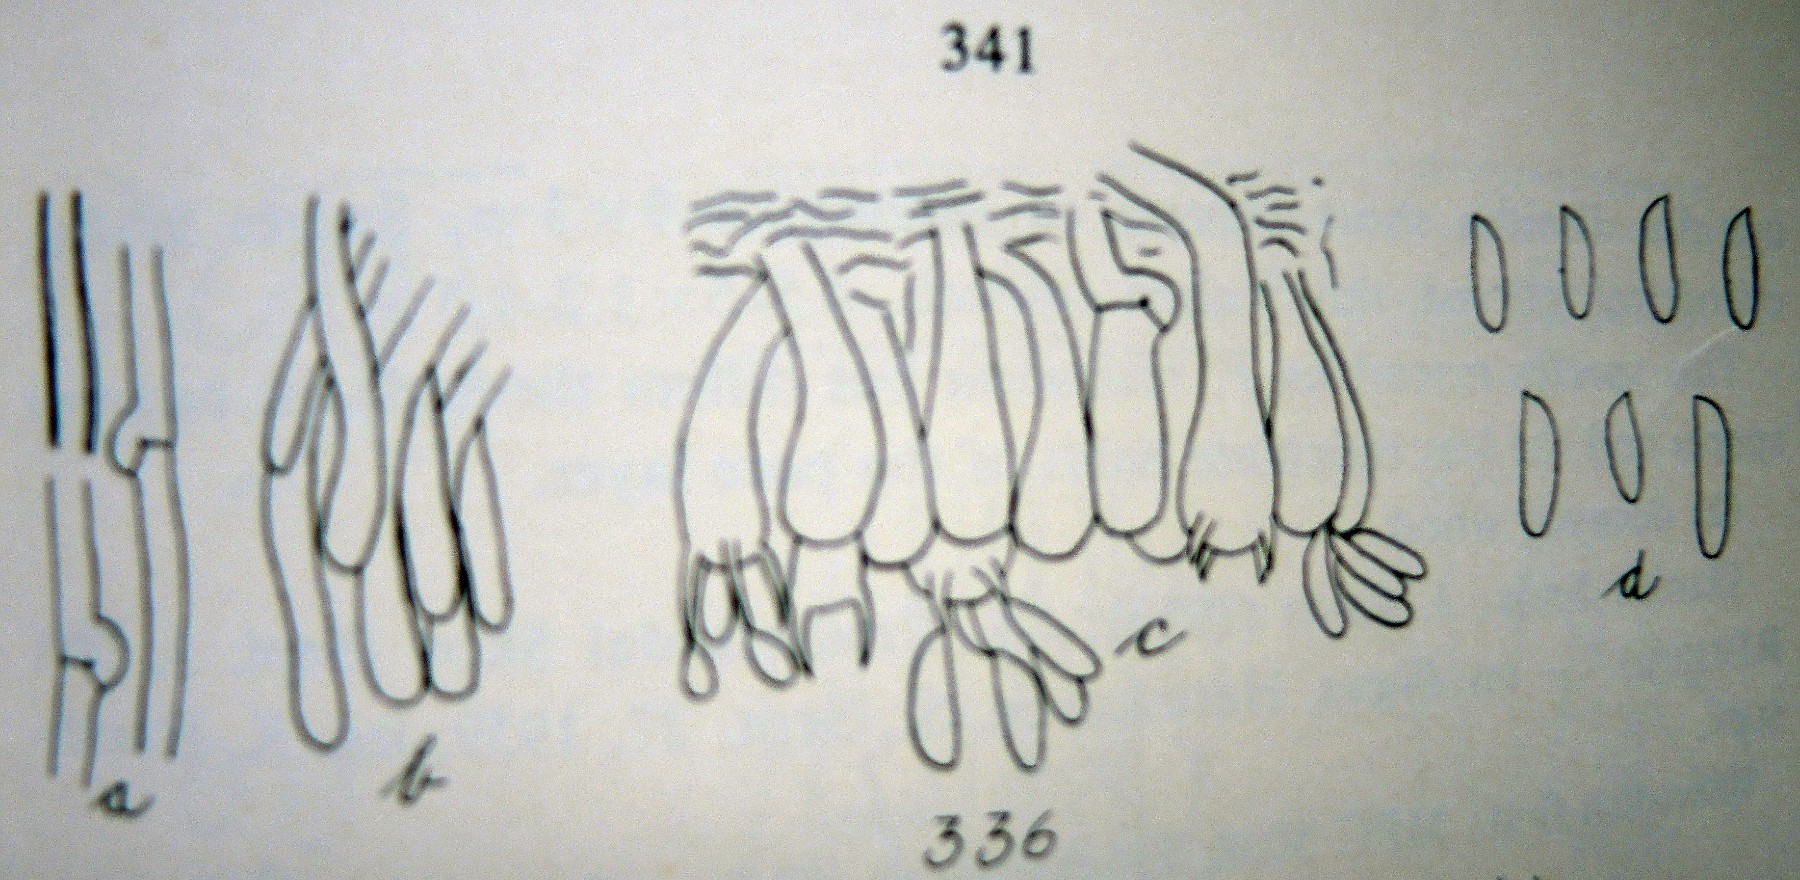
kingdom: Fungi
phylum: Basidiomycota
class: Agaricomycetes
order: Polyporales
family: Fomitopsidaceae
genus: Antrodia
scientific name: Antrodia mappa
